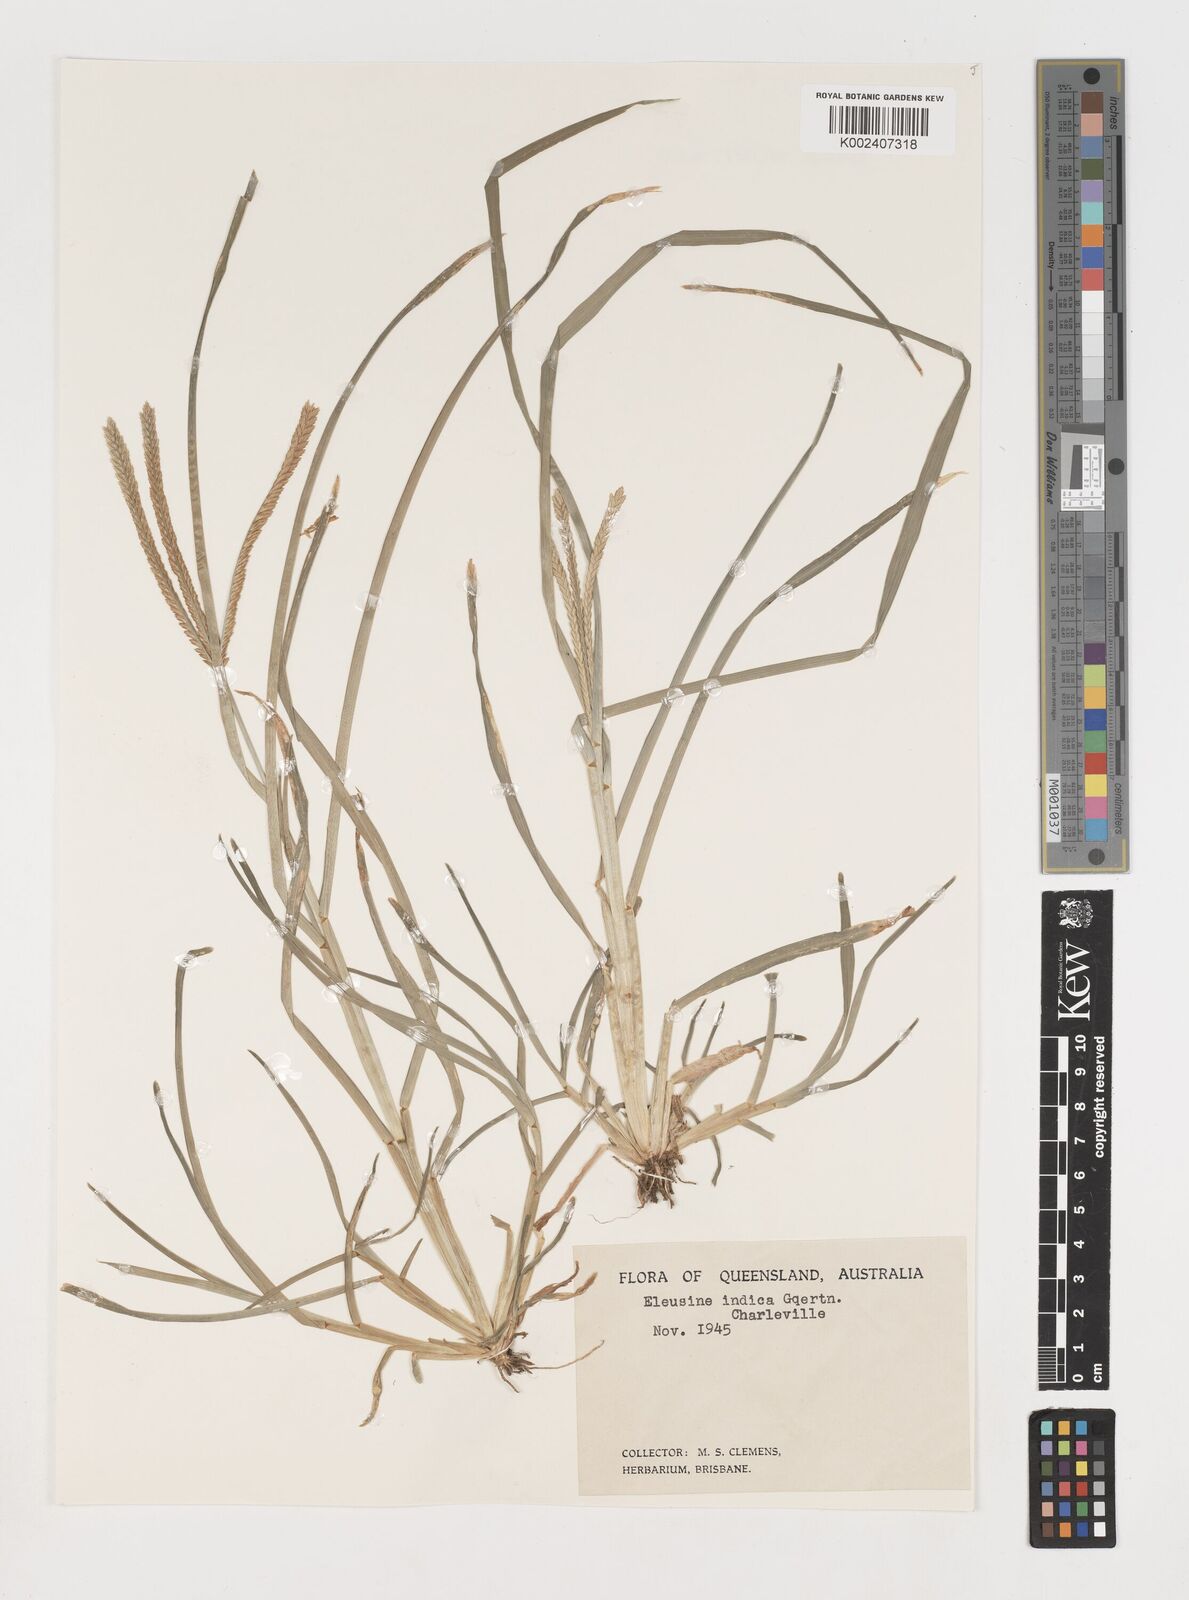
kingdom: Plantae
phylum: Tracheophyta
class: Liliopsida
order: Poales
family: Poaceae
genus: Eleusine
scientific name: Eleusine indica
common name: Yard-grass
